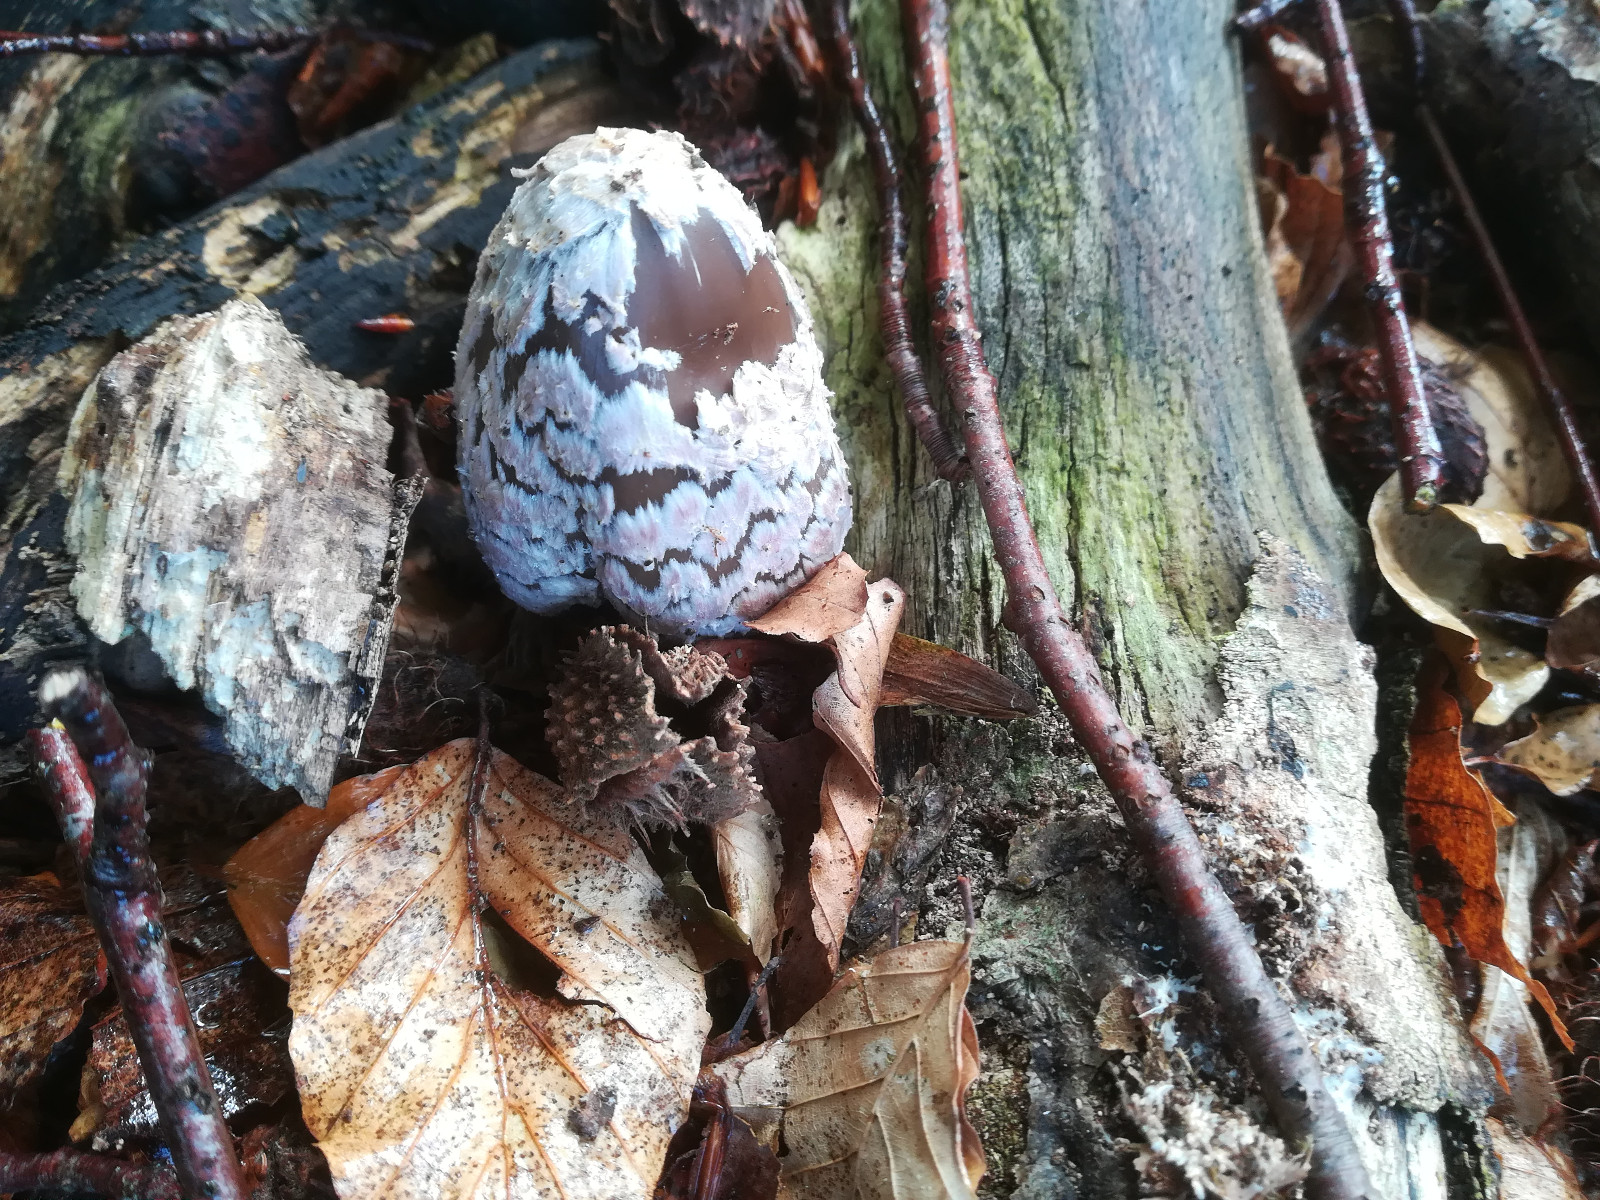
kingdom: Fungi
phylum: Basidiomycota
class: Agaricomycetes
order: Agaricales
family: Psathyrellaceae
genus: Coprinopsis
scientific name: Coprinopsis picacea
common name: skade-blækhat
